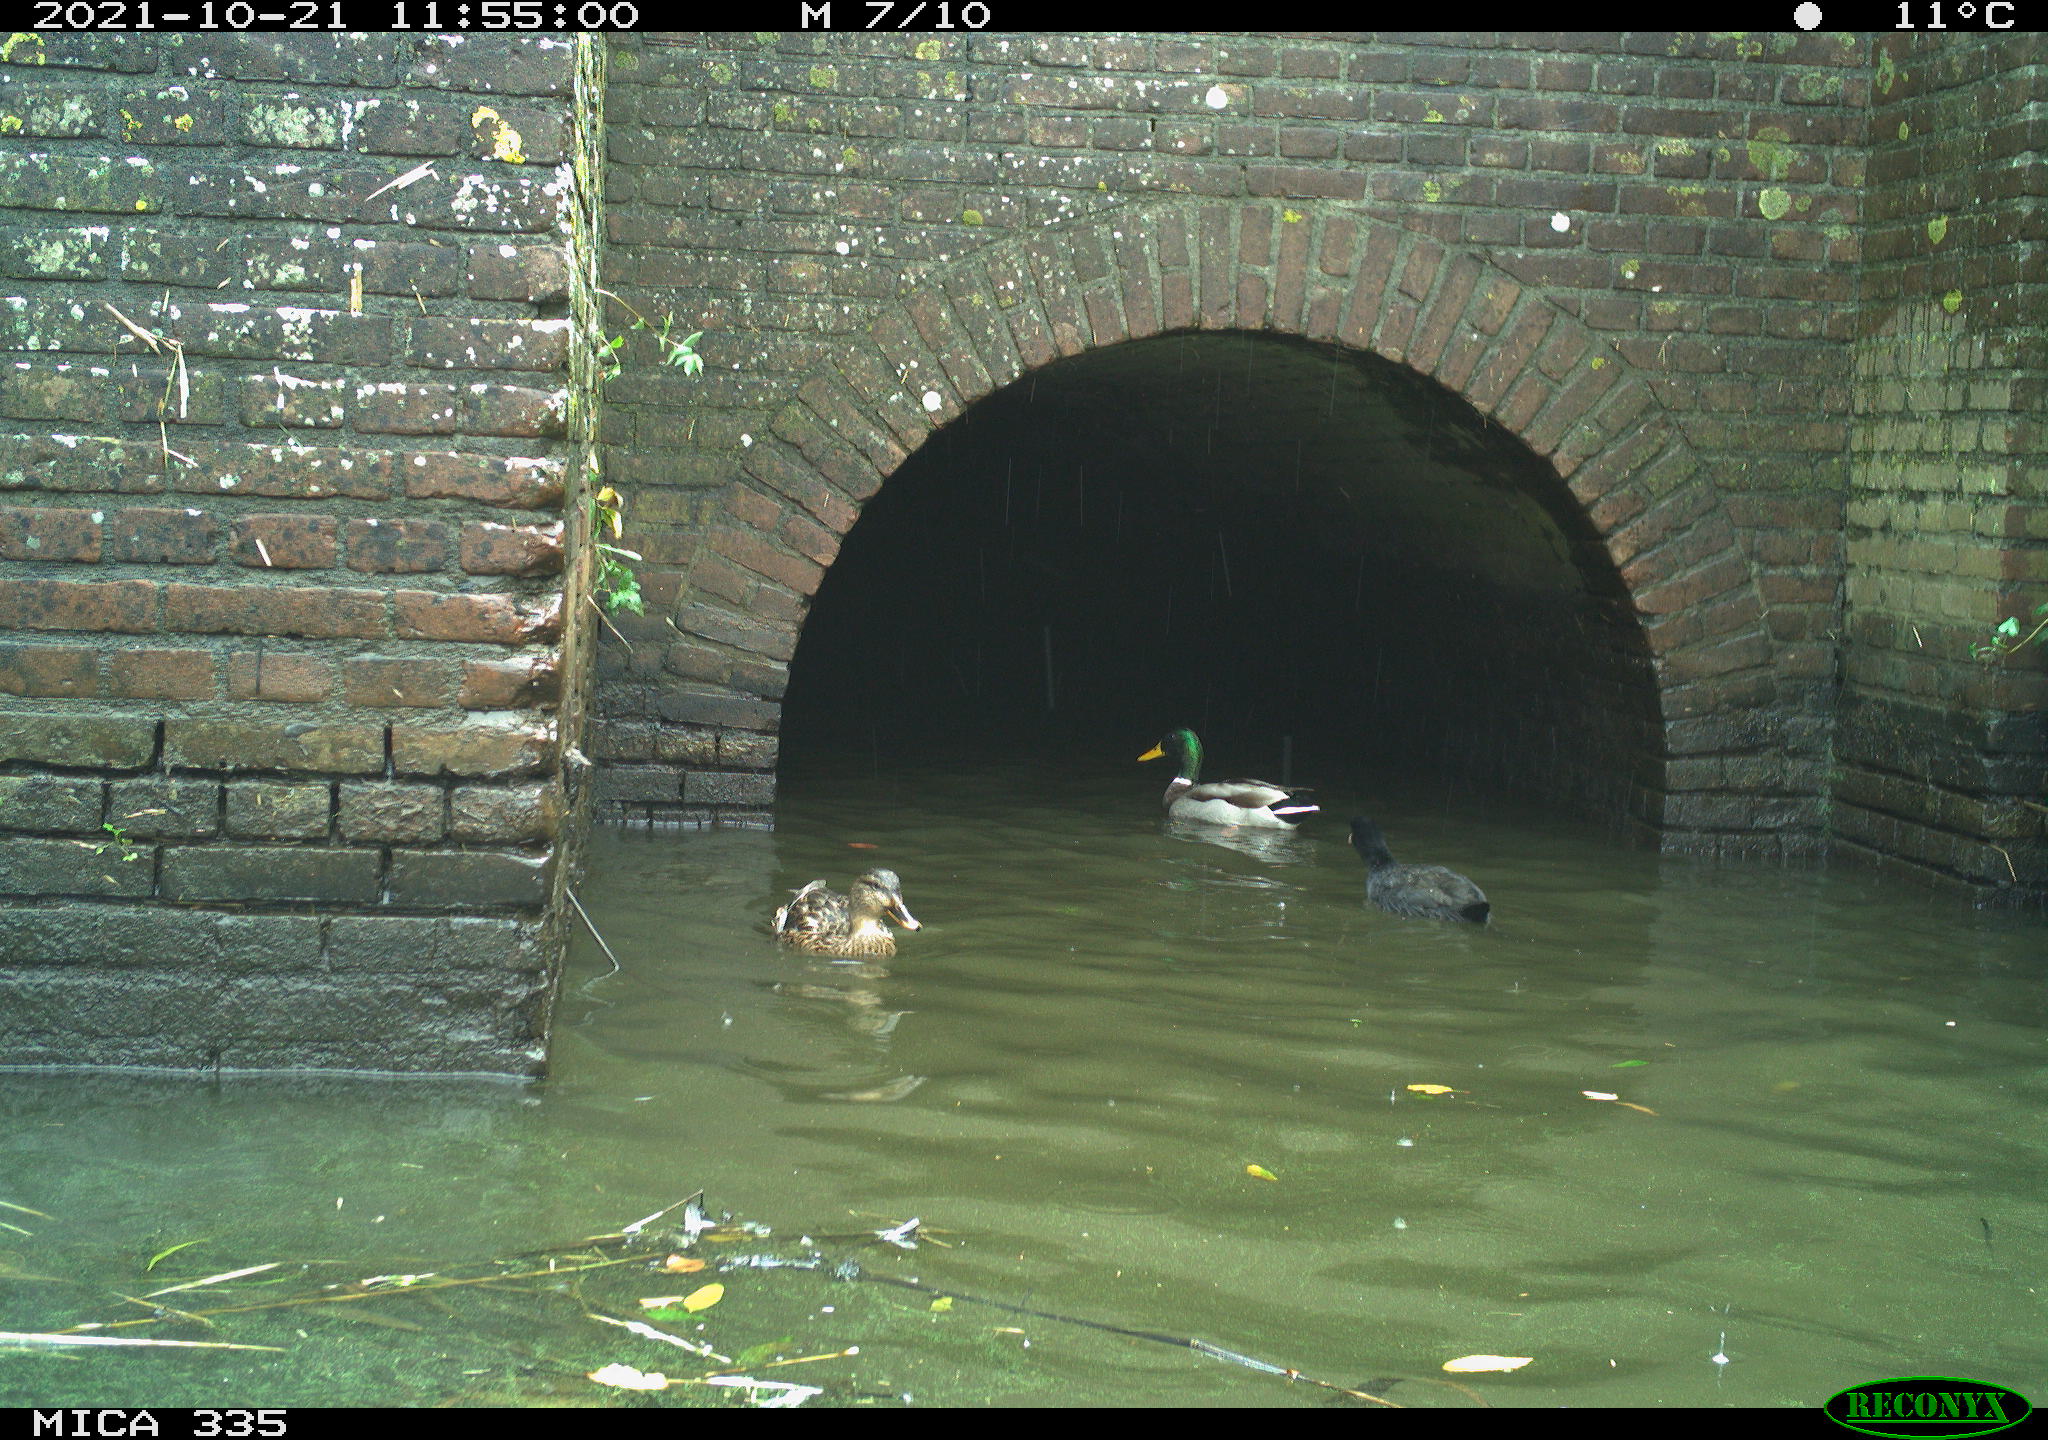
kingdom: Animalia
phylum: Chordata
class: Aves
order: Gruiformes
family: Rallidae
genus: Fulica
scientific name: Fulica atra
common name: Eurasian coot
